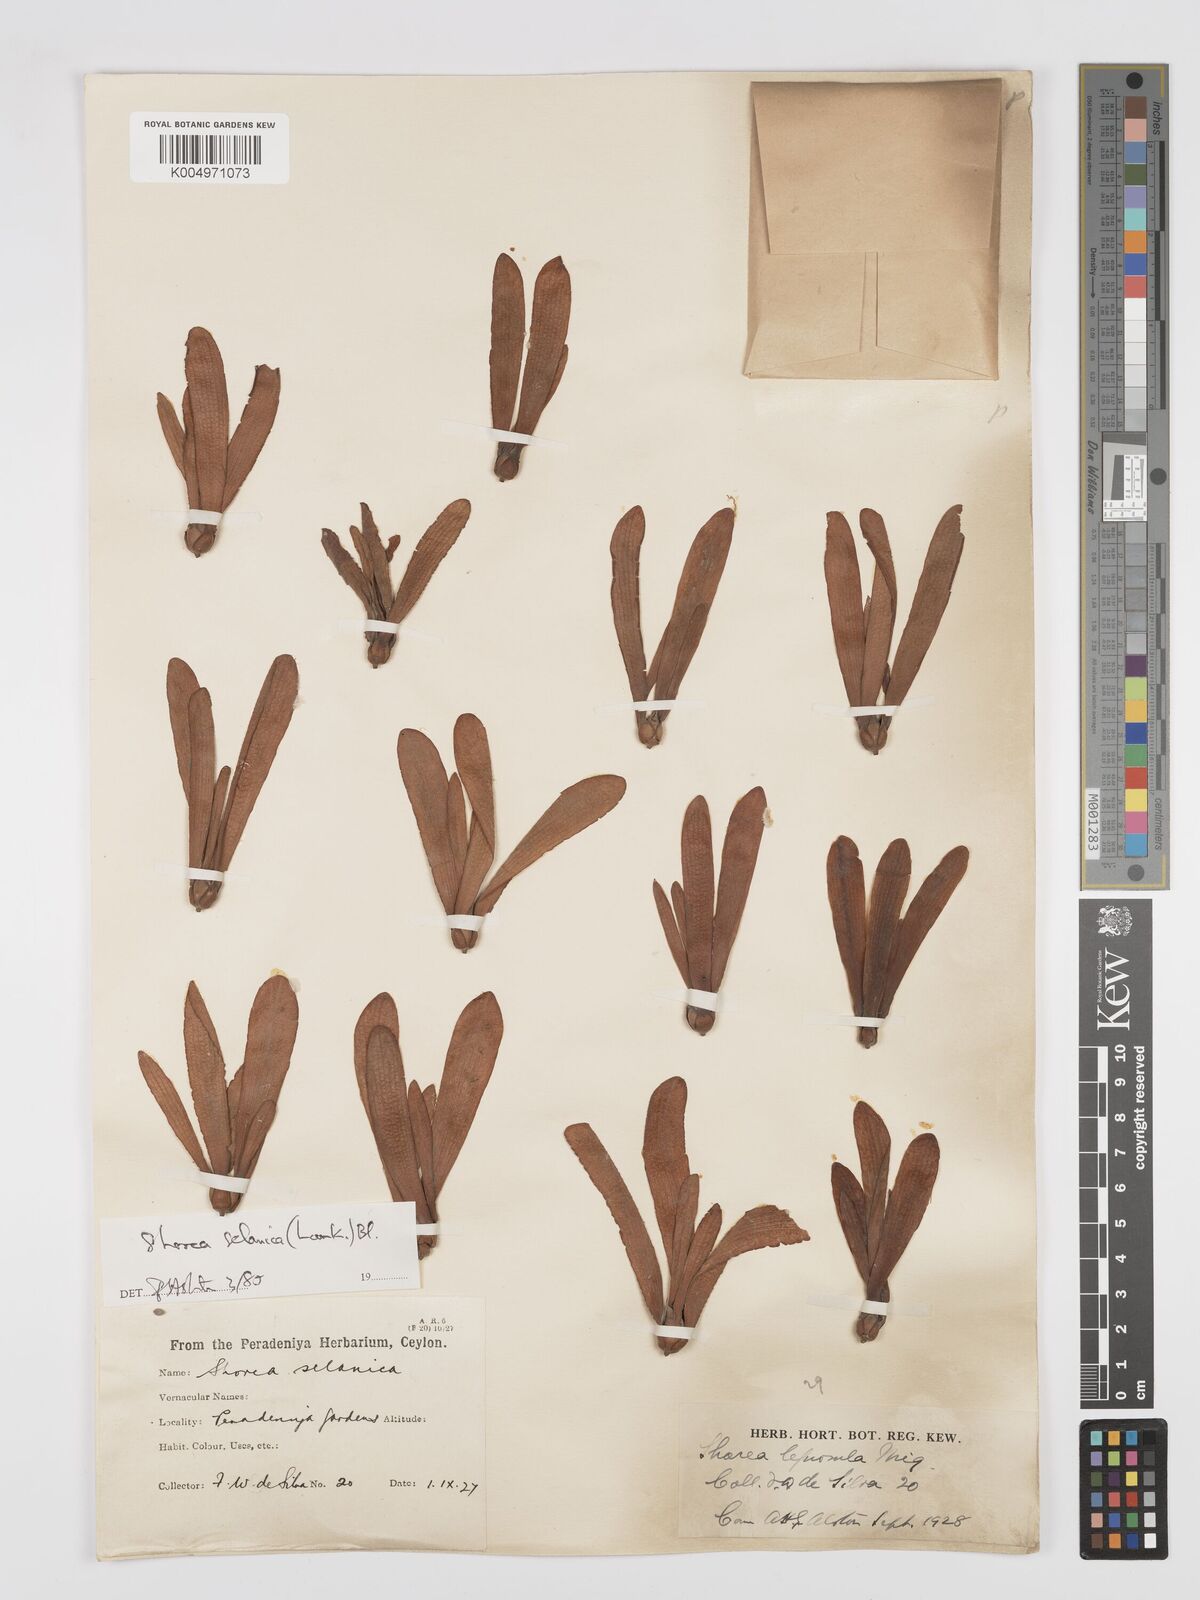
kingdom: Plantae
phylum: Tracheophyta
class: Magnoliopsida
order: Malvales
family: Dipterocarpaceae
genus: Shorea
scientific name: Shorea selanica
